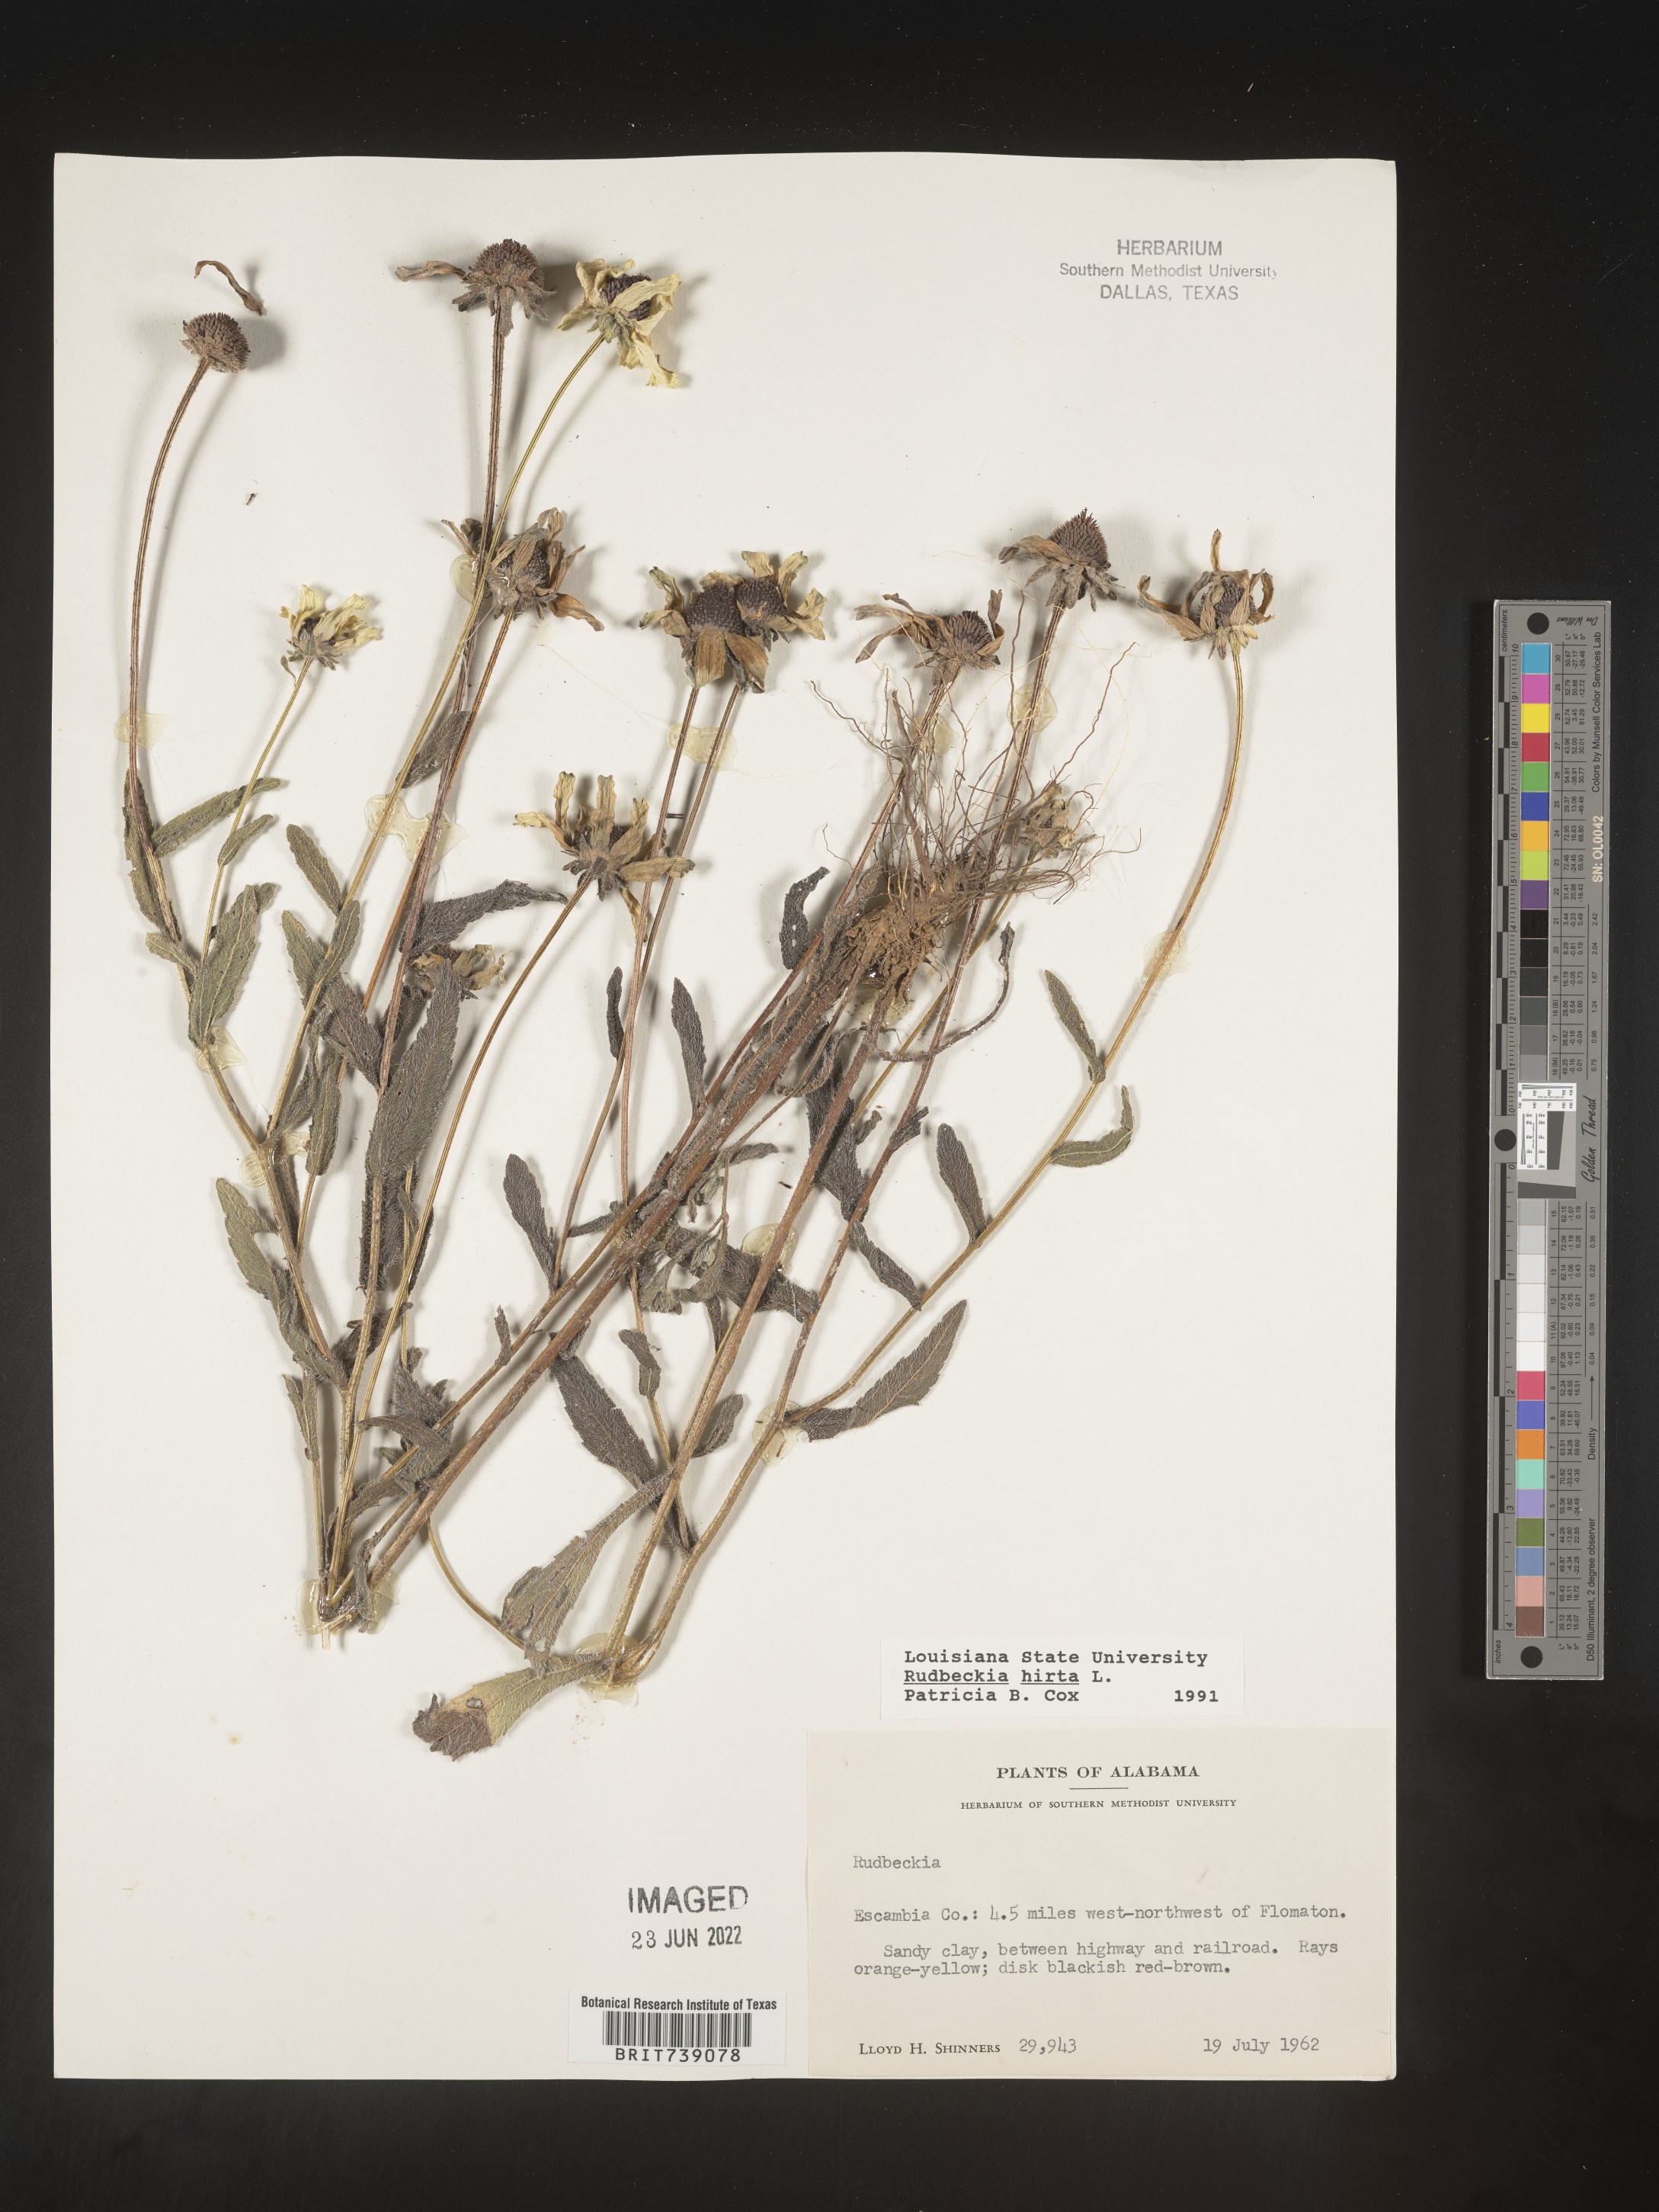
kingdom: Plantae
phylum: Tracheophyta
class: Magnoliopsida
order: Asterales
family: Asteraceae
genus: Rudbeckia
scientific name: Rudbeckia hirta
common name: Black-eyed-susan
